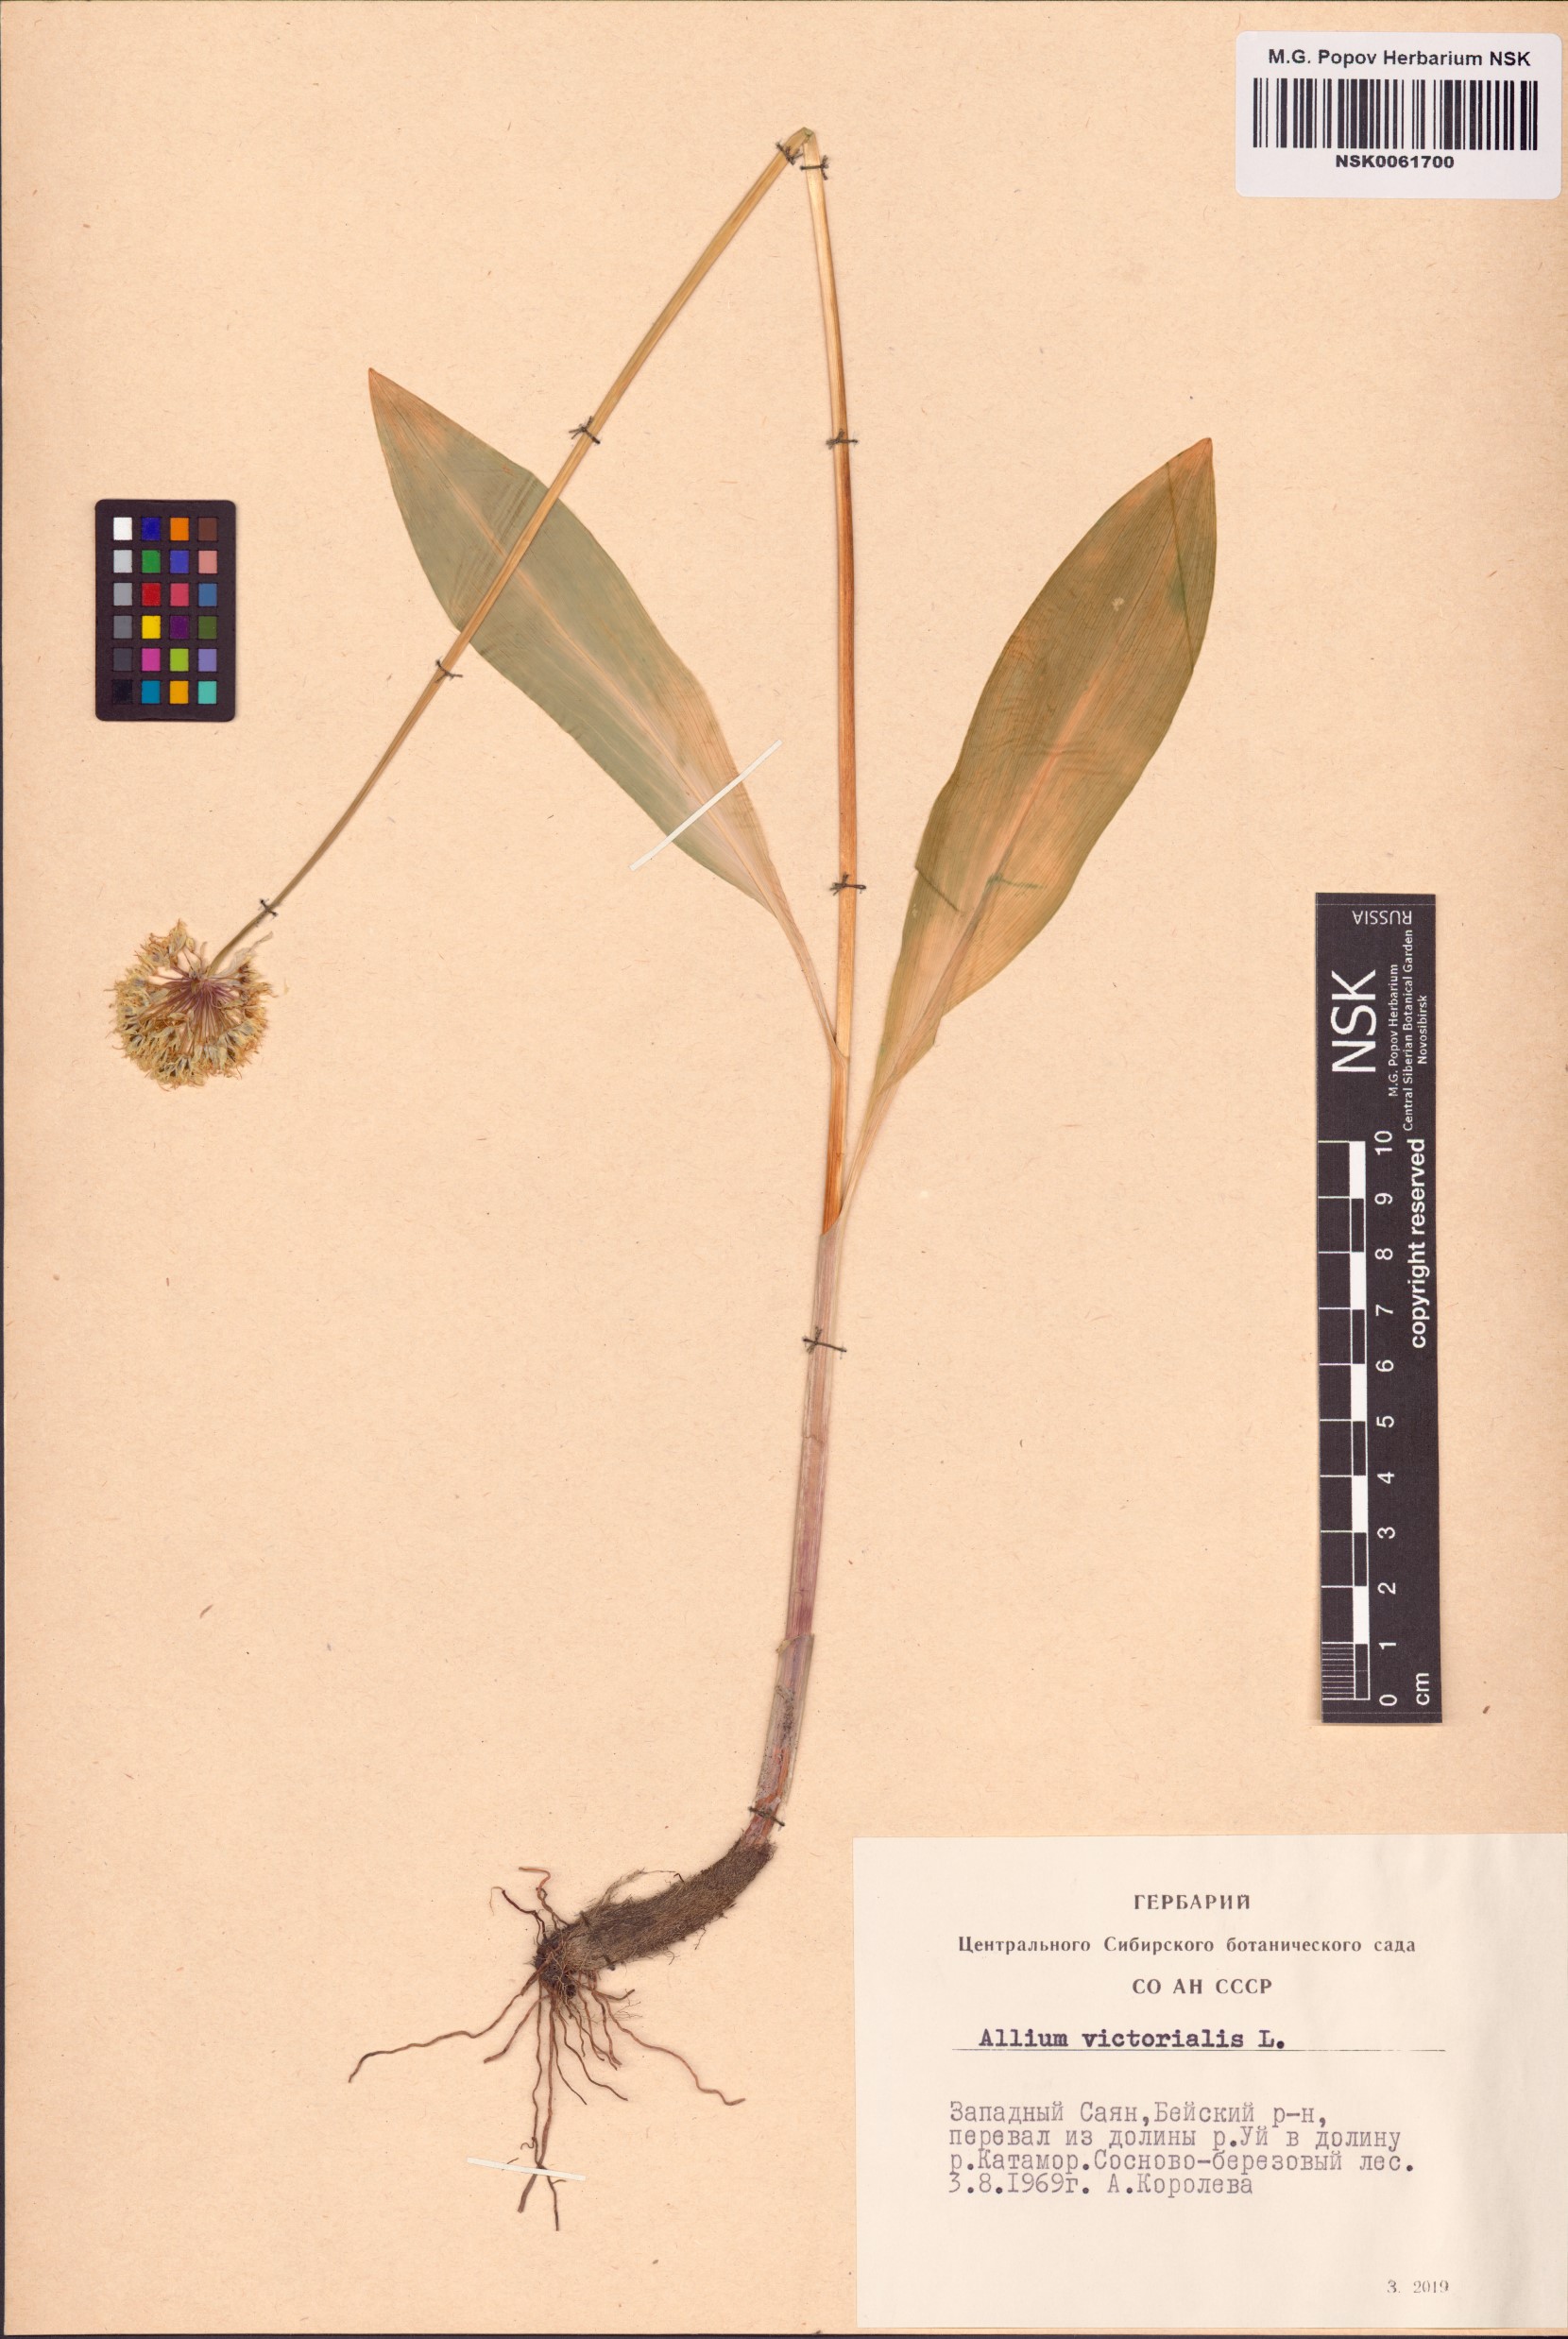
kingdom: Plantae
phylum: Tracheophyta
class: Liliopsida
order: Asparagales
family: Amaryllidaceae
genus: Allium
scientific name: Allium victorialis
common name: Alpine leek
